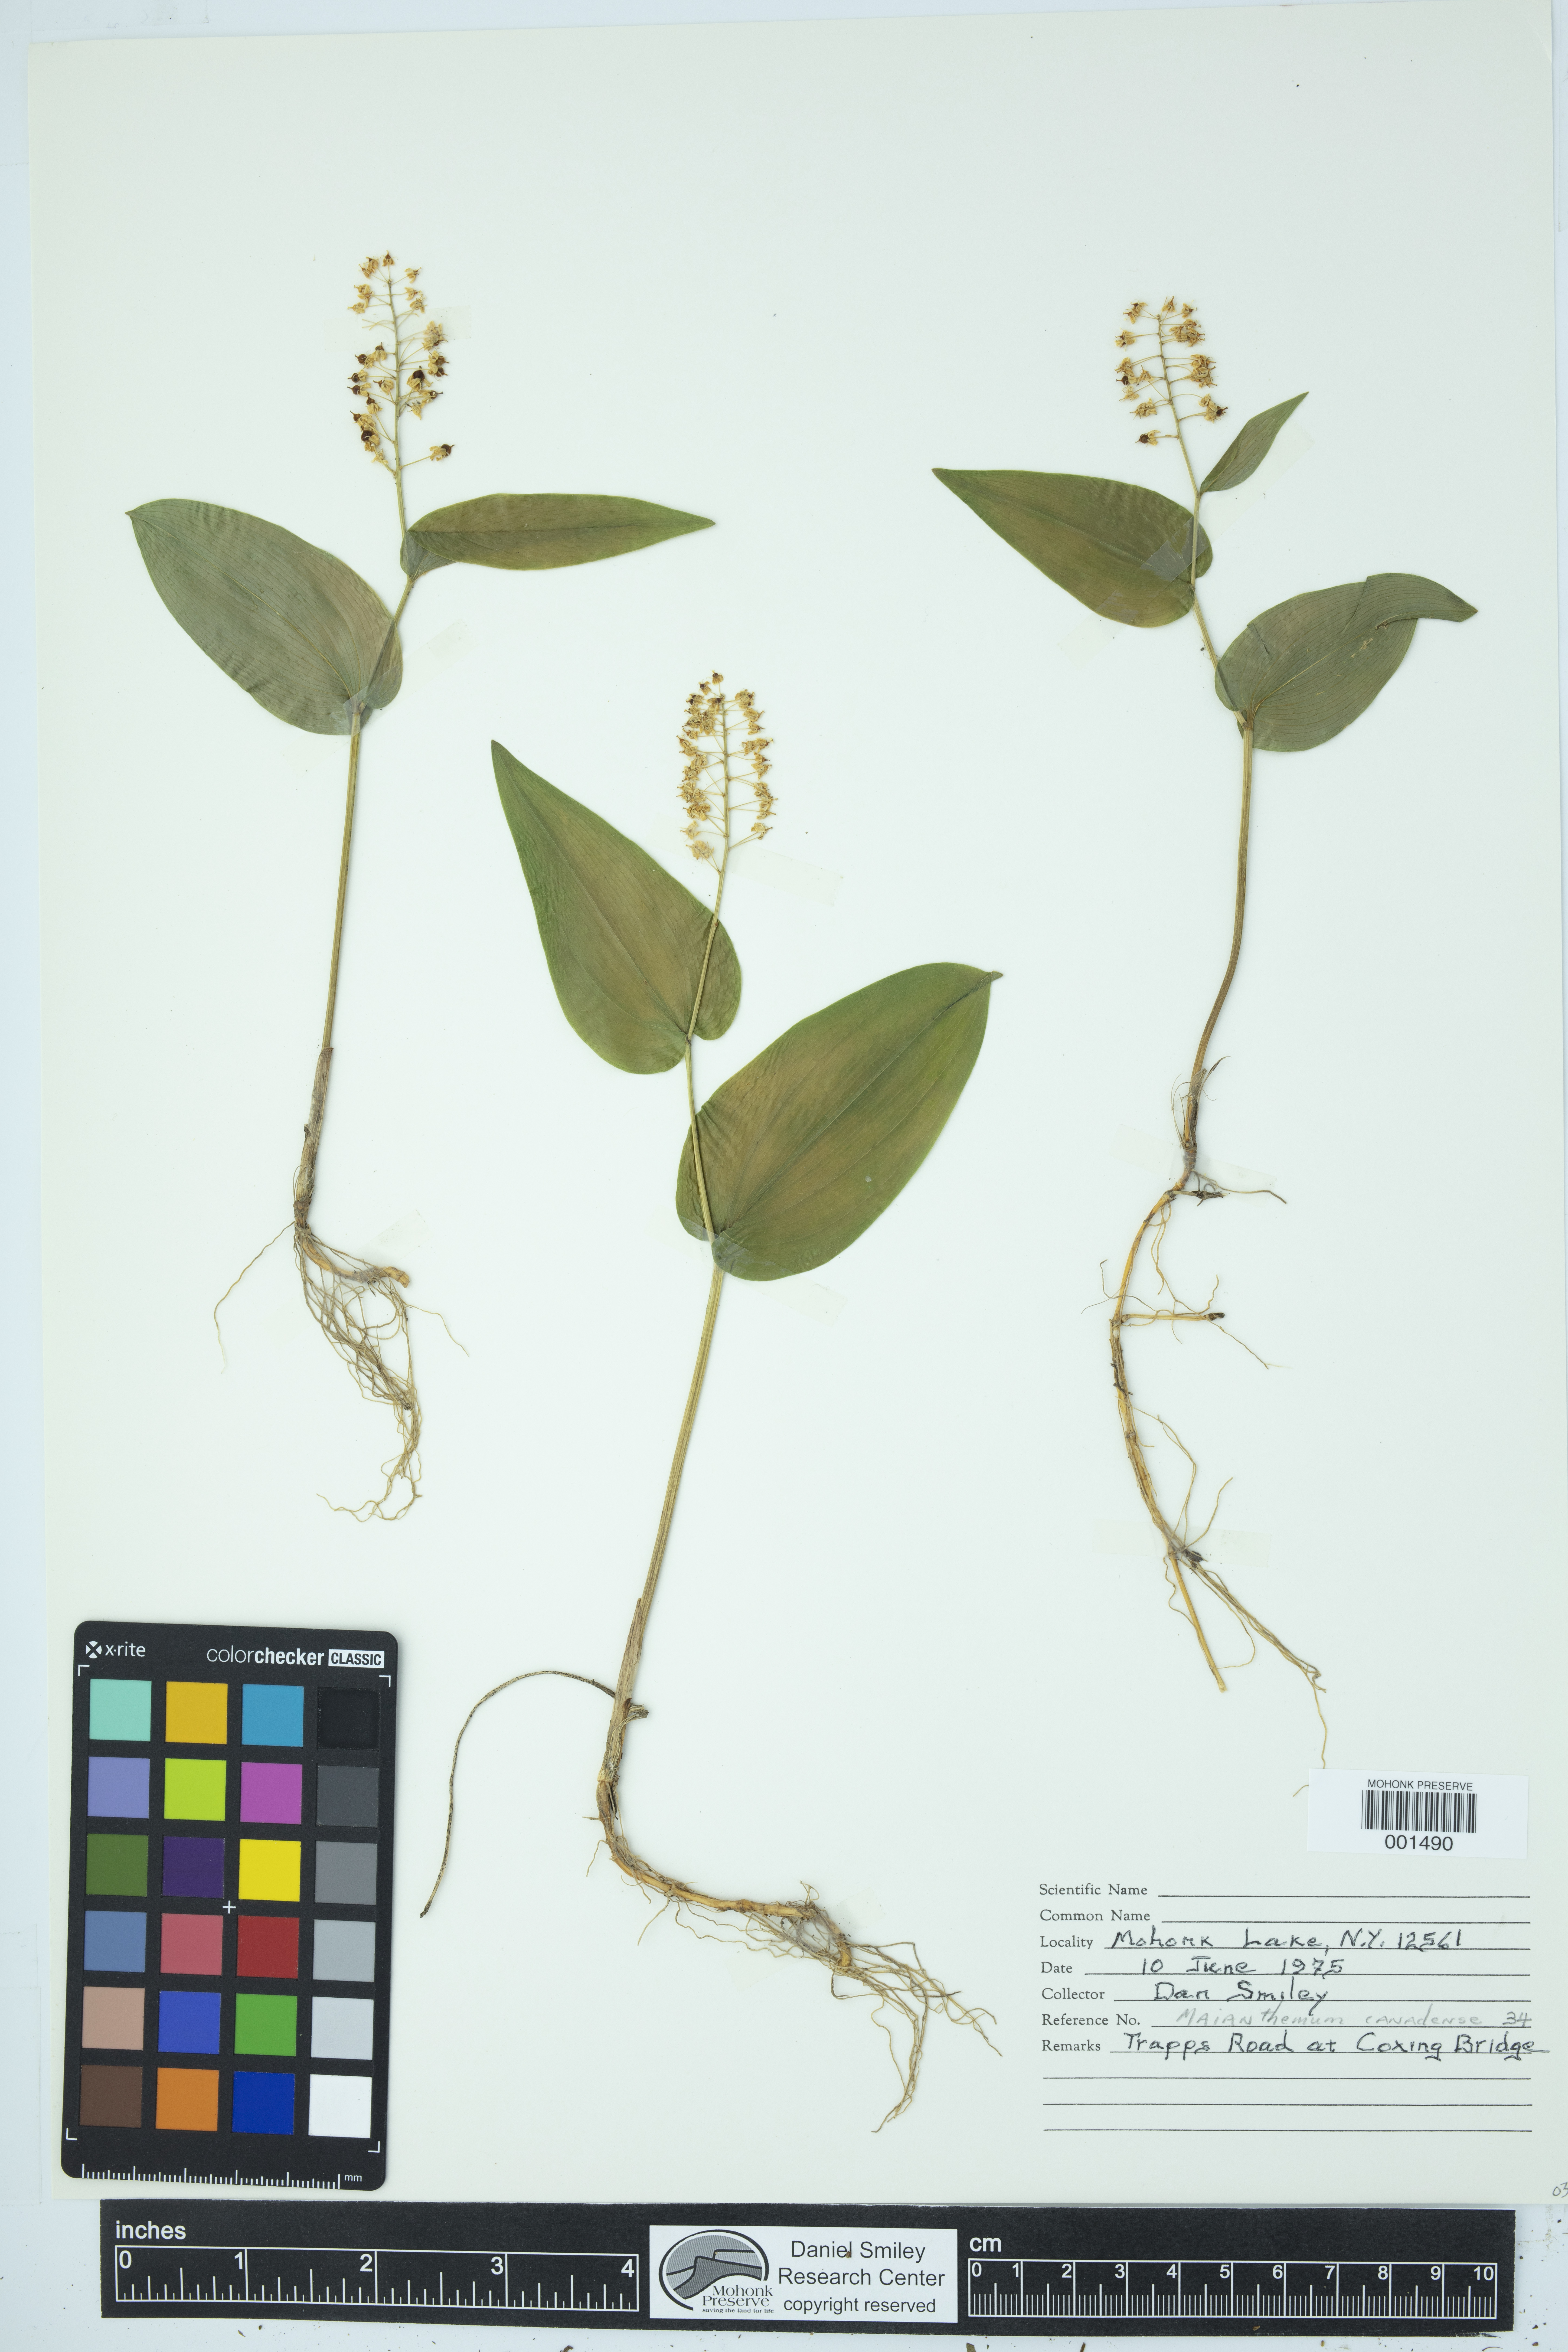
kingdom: Plantae
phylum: Tracheophyta
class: Liliopsida
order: Asparagales
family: Asparagaceae
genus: Maianthemum
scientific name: Maianthemum canadense
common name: False lily-of-the-valley
